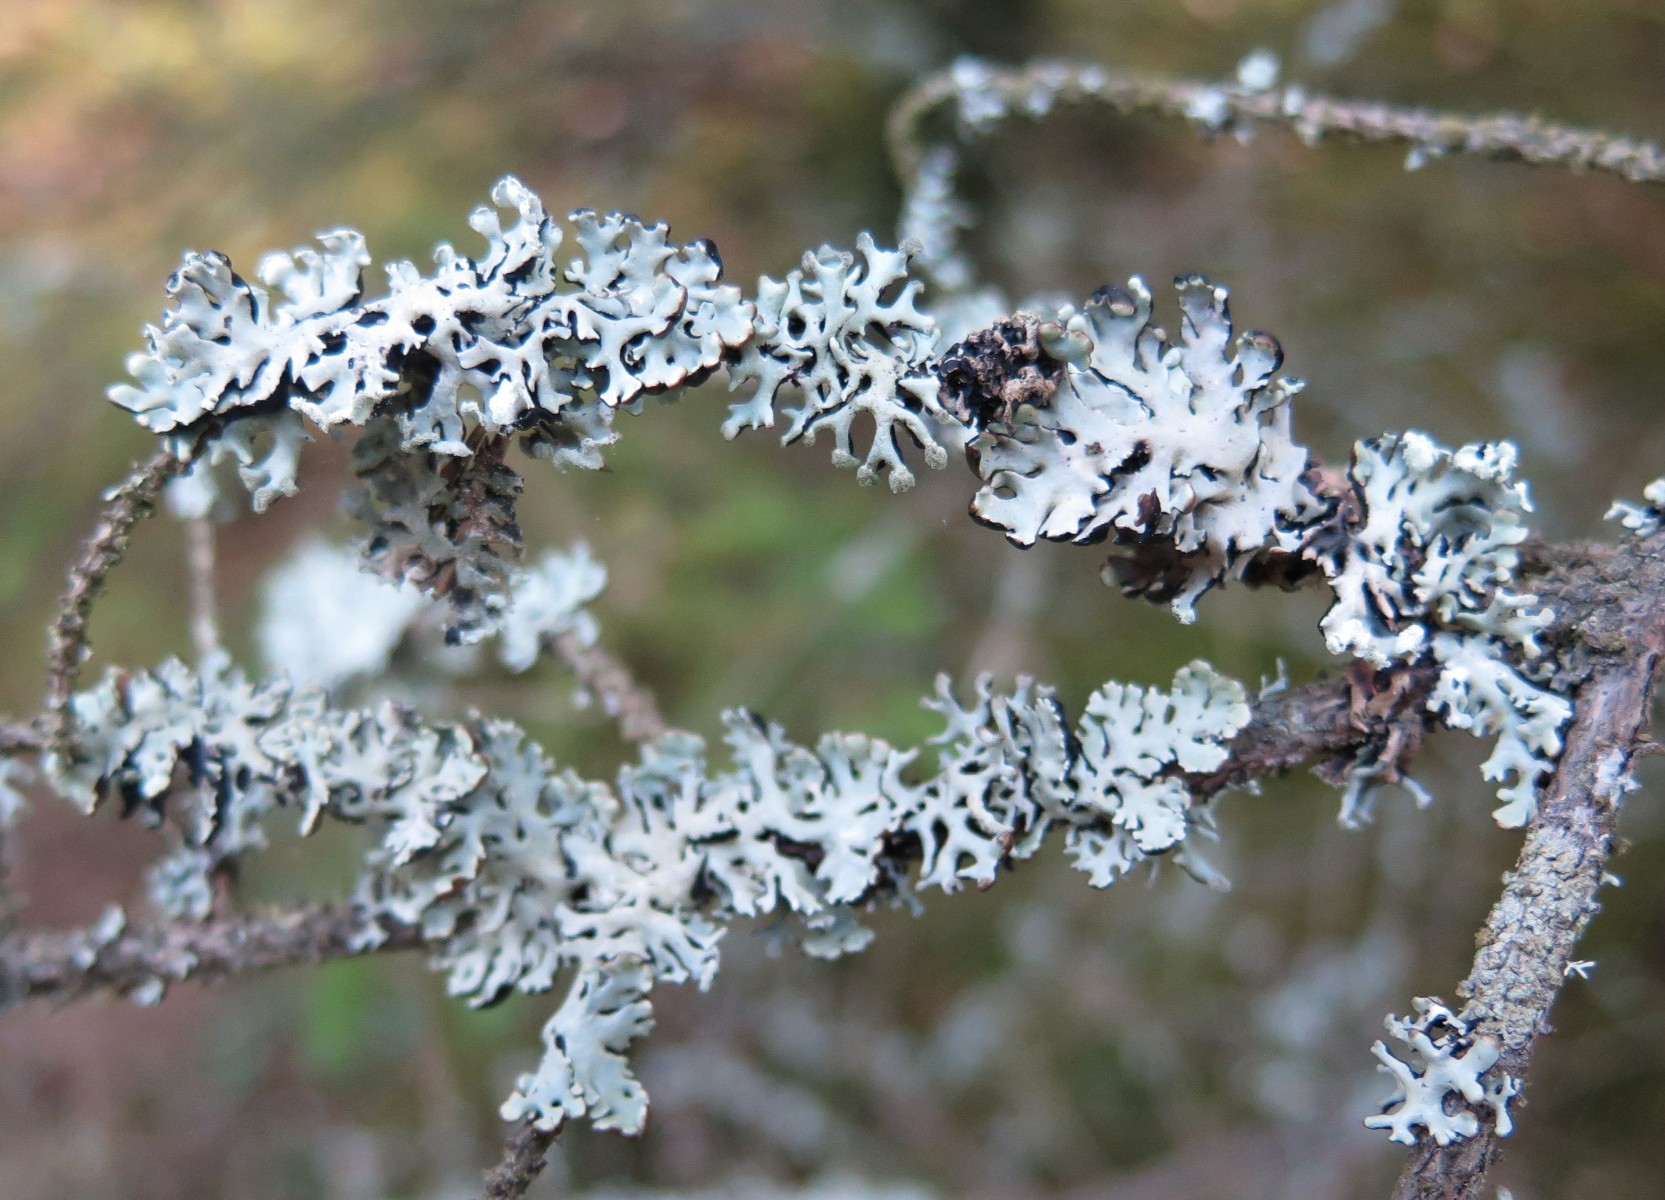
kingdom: Fungi
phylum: Ascomycota
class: Lecanoromycetes
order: Lecanorales
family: Parmeliaceae
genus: Hypogymnia
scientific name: Hypogymnia physodes
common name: almindelig kvistlav
